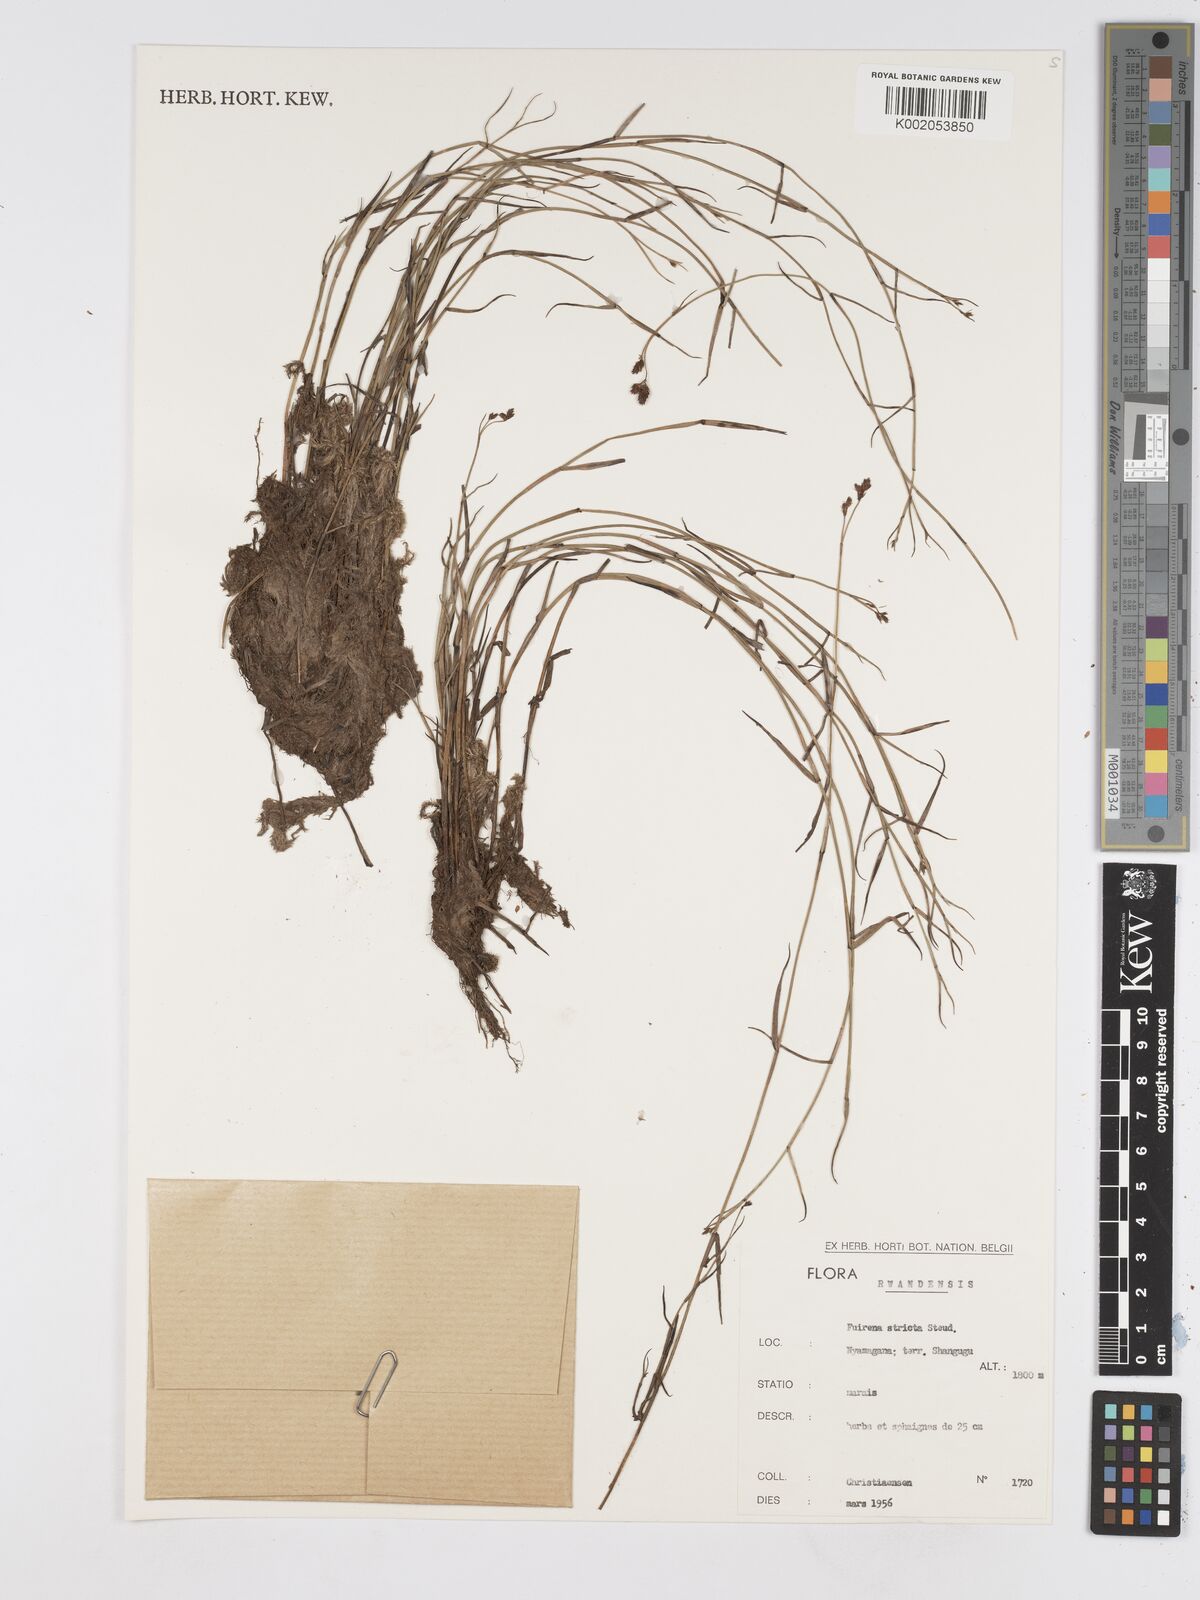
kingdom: Plantae
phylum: Tracheophyta
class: Liliopsida
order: Poales
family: Cyperaceae
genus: Fuirena
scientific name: Fuirena stricta
